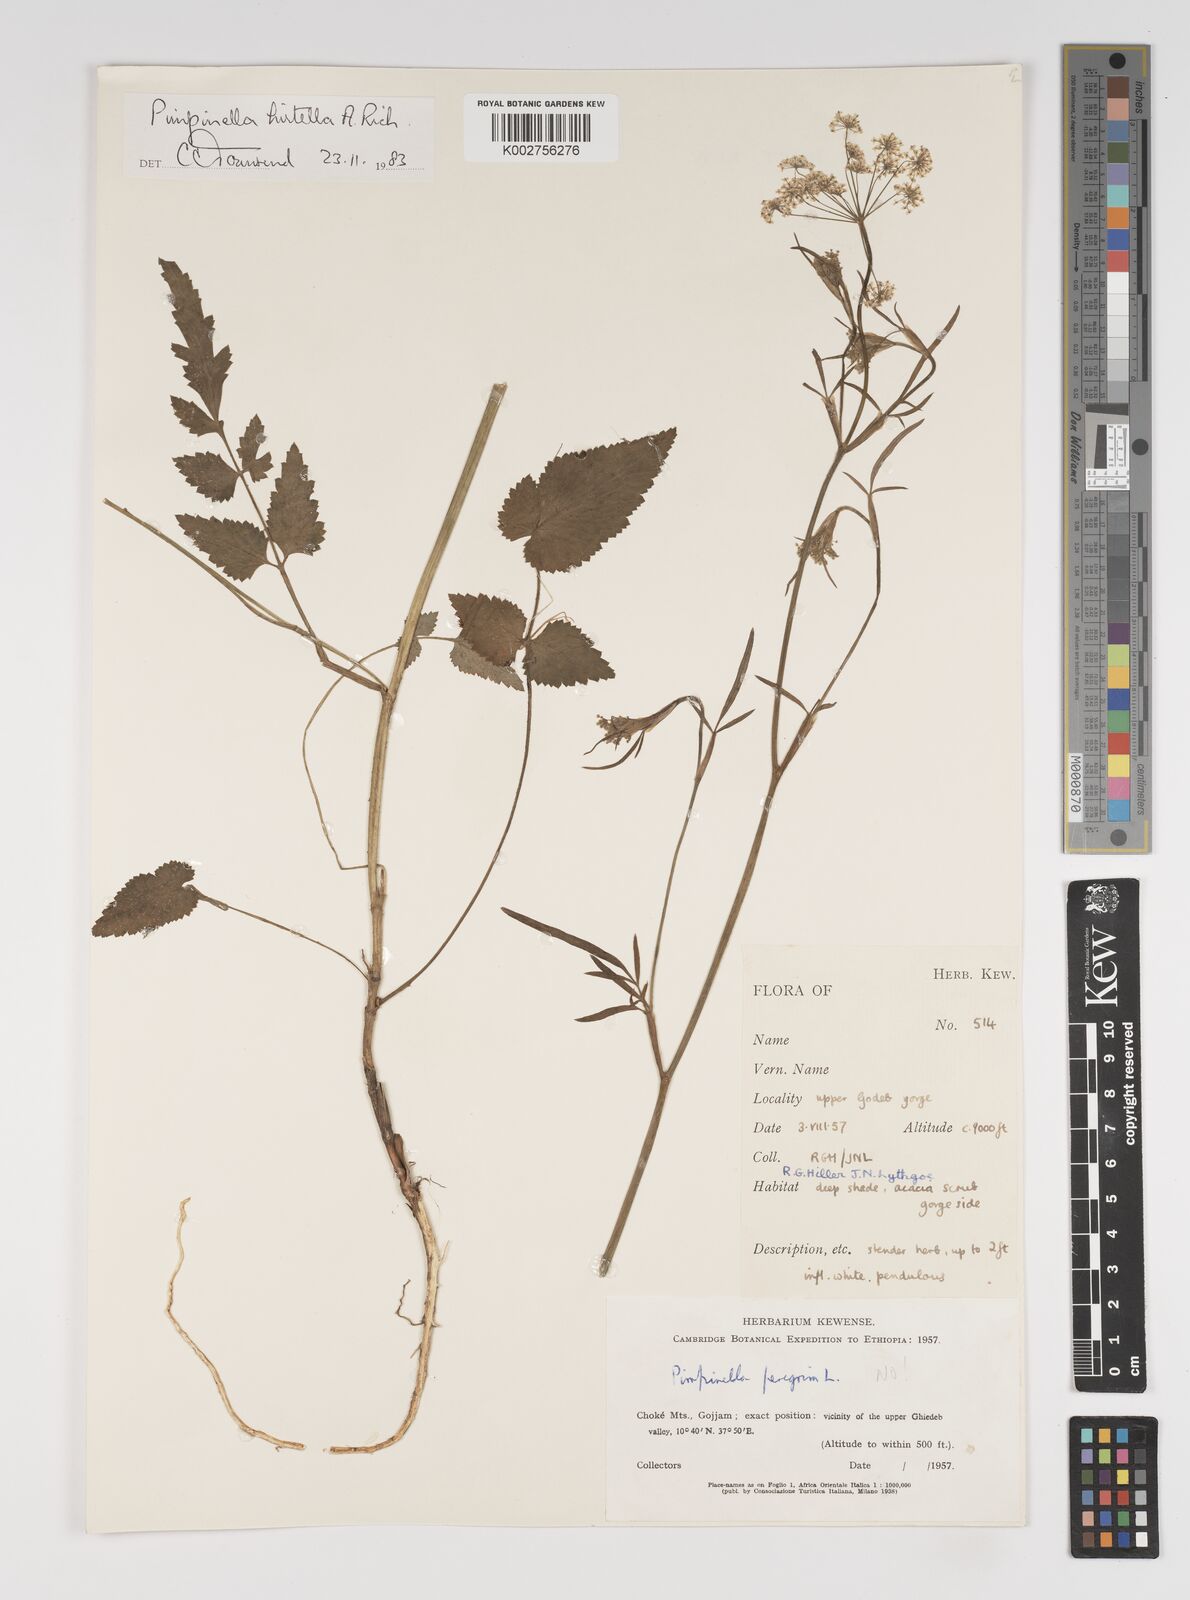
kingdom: Plantae
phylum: Tracheophyta
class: Magnoliopsida
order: Apiales
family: Apiaceae
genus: Pimpinella
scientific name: Pimpinella hirtella
